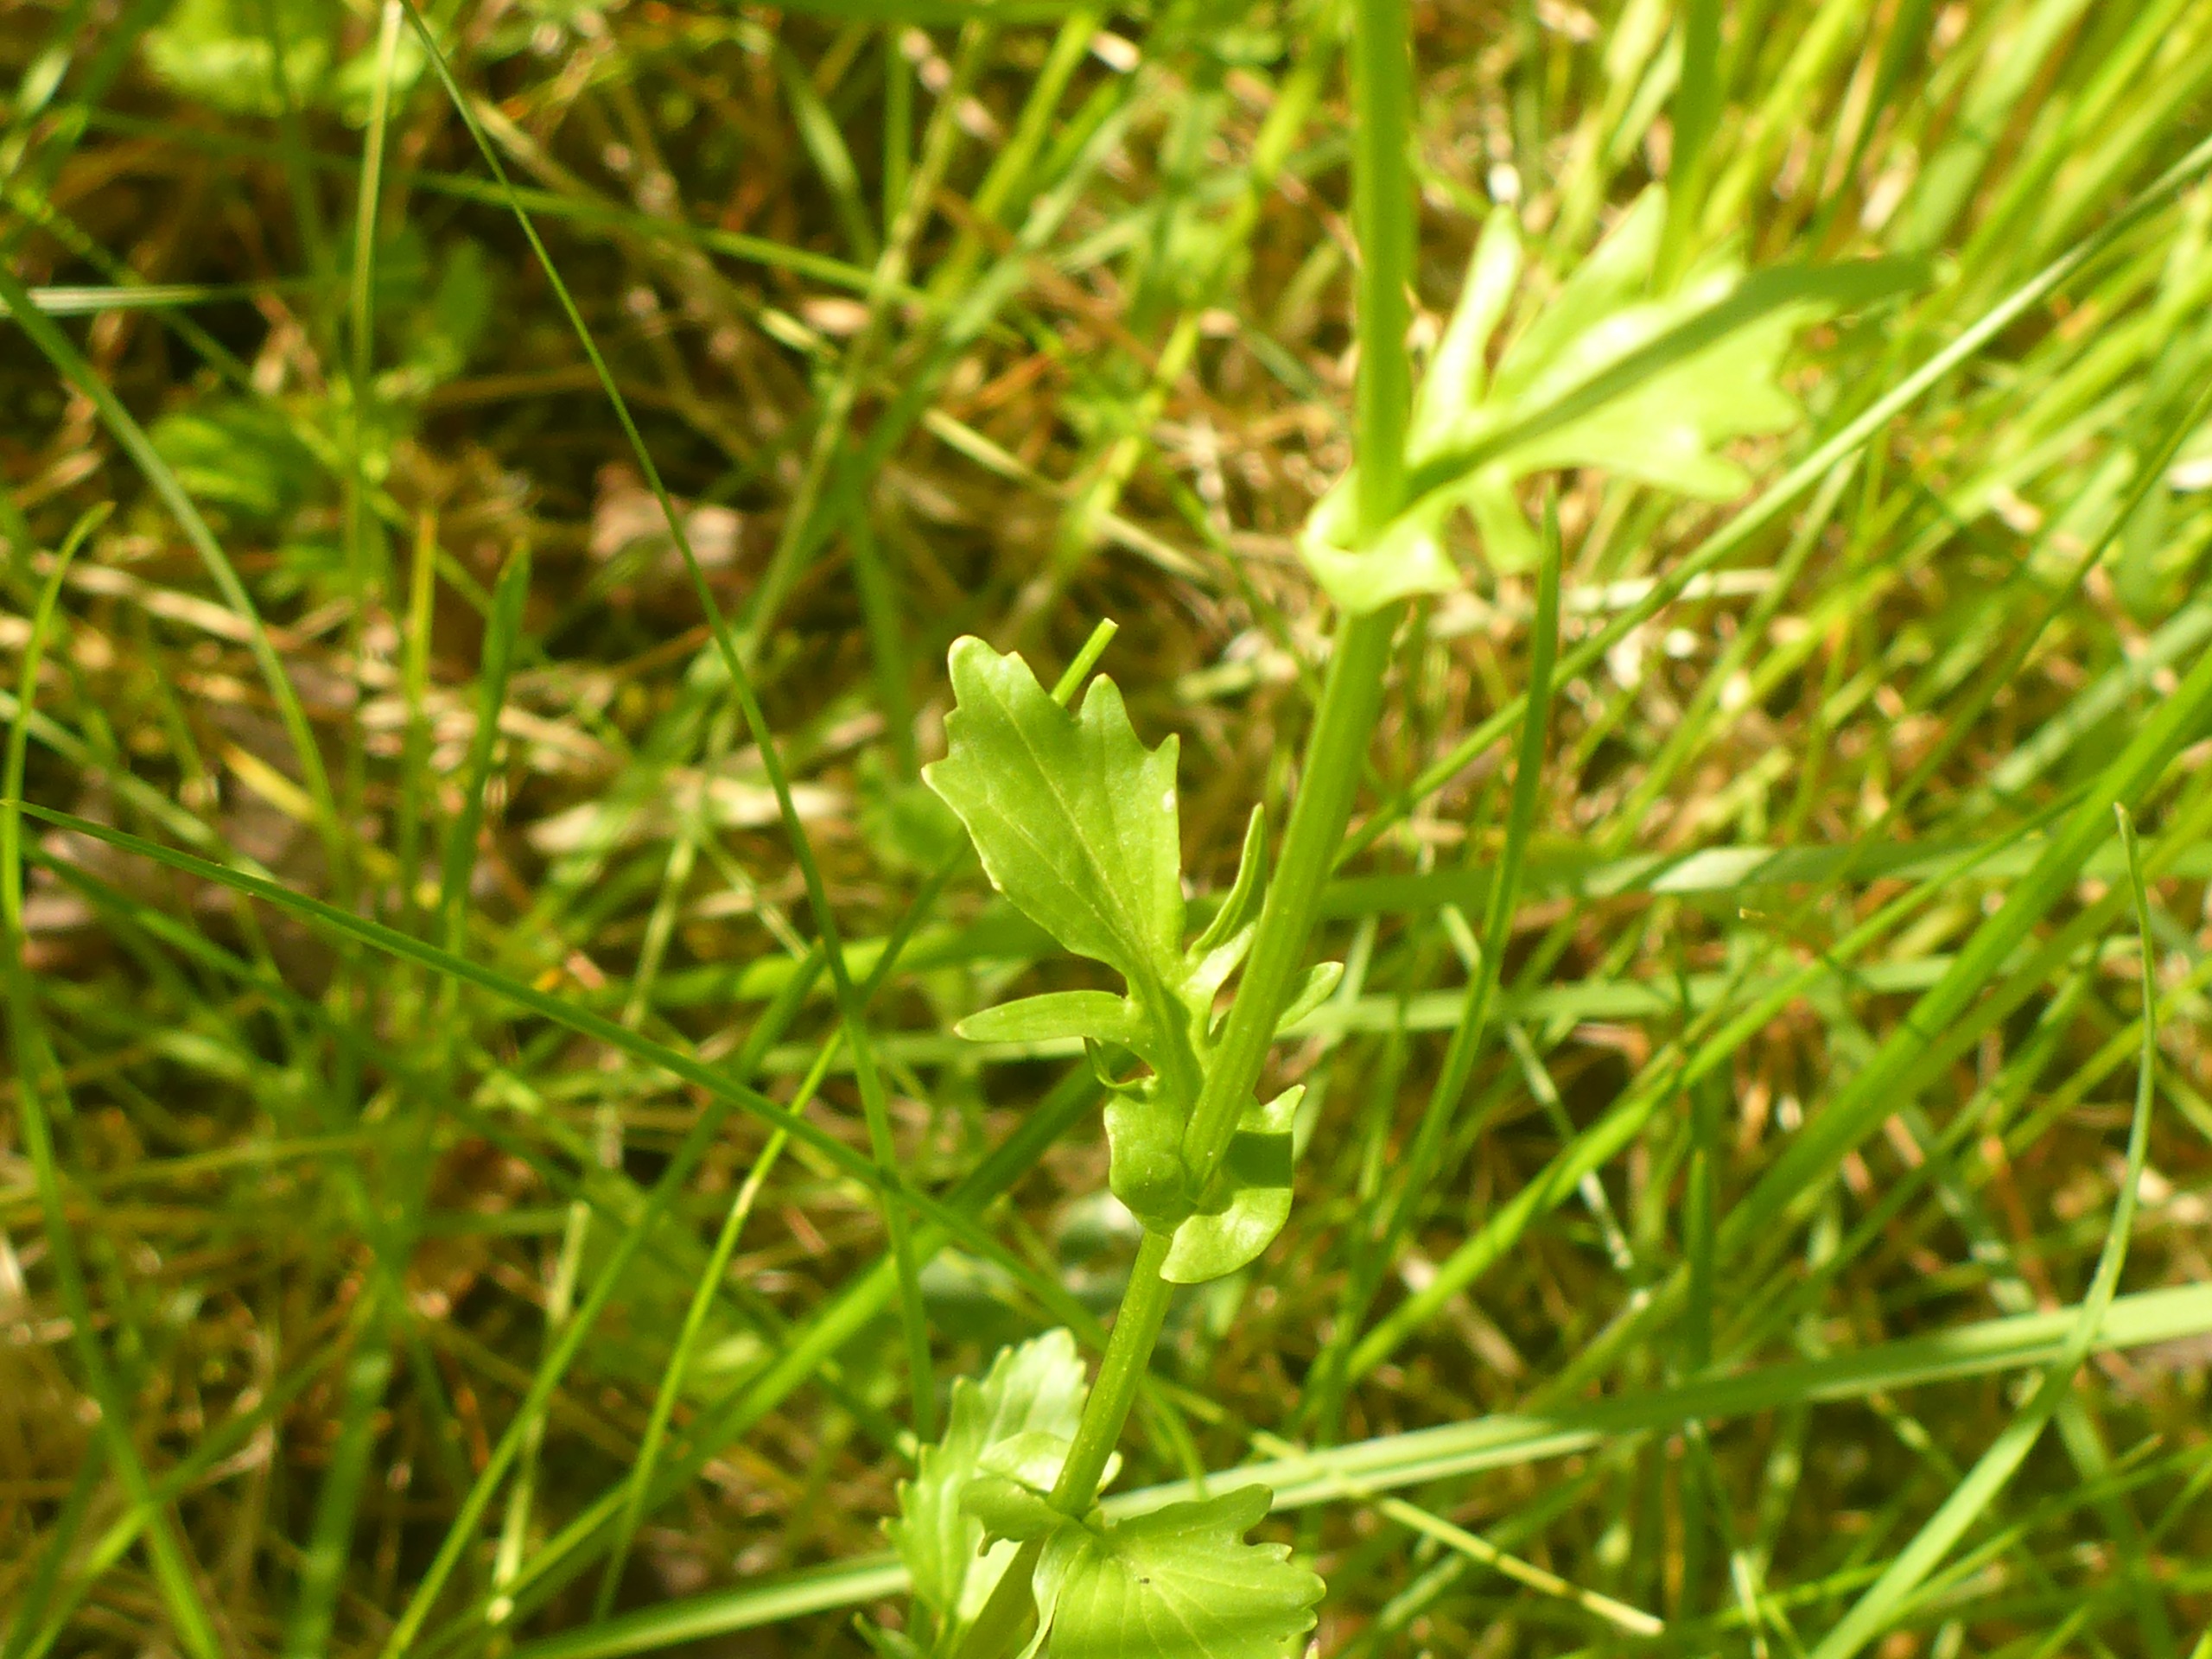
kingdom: Plantae
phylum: Tracheophyta
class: Magnoliopsida
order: Brassicales
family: Brassicaceae
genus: Barbarea
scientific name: Barbarea vulgaris
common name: Udspærret vinterkarse
